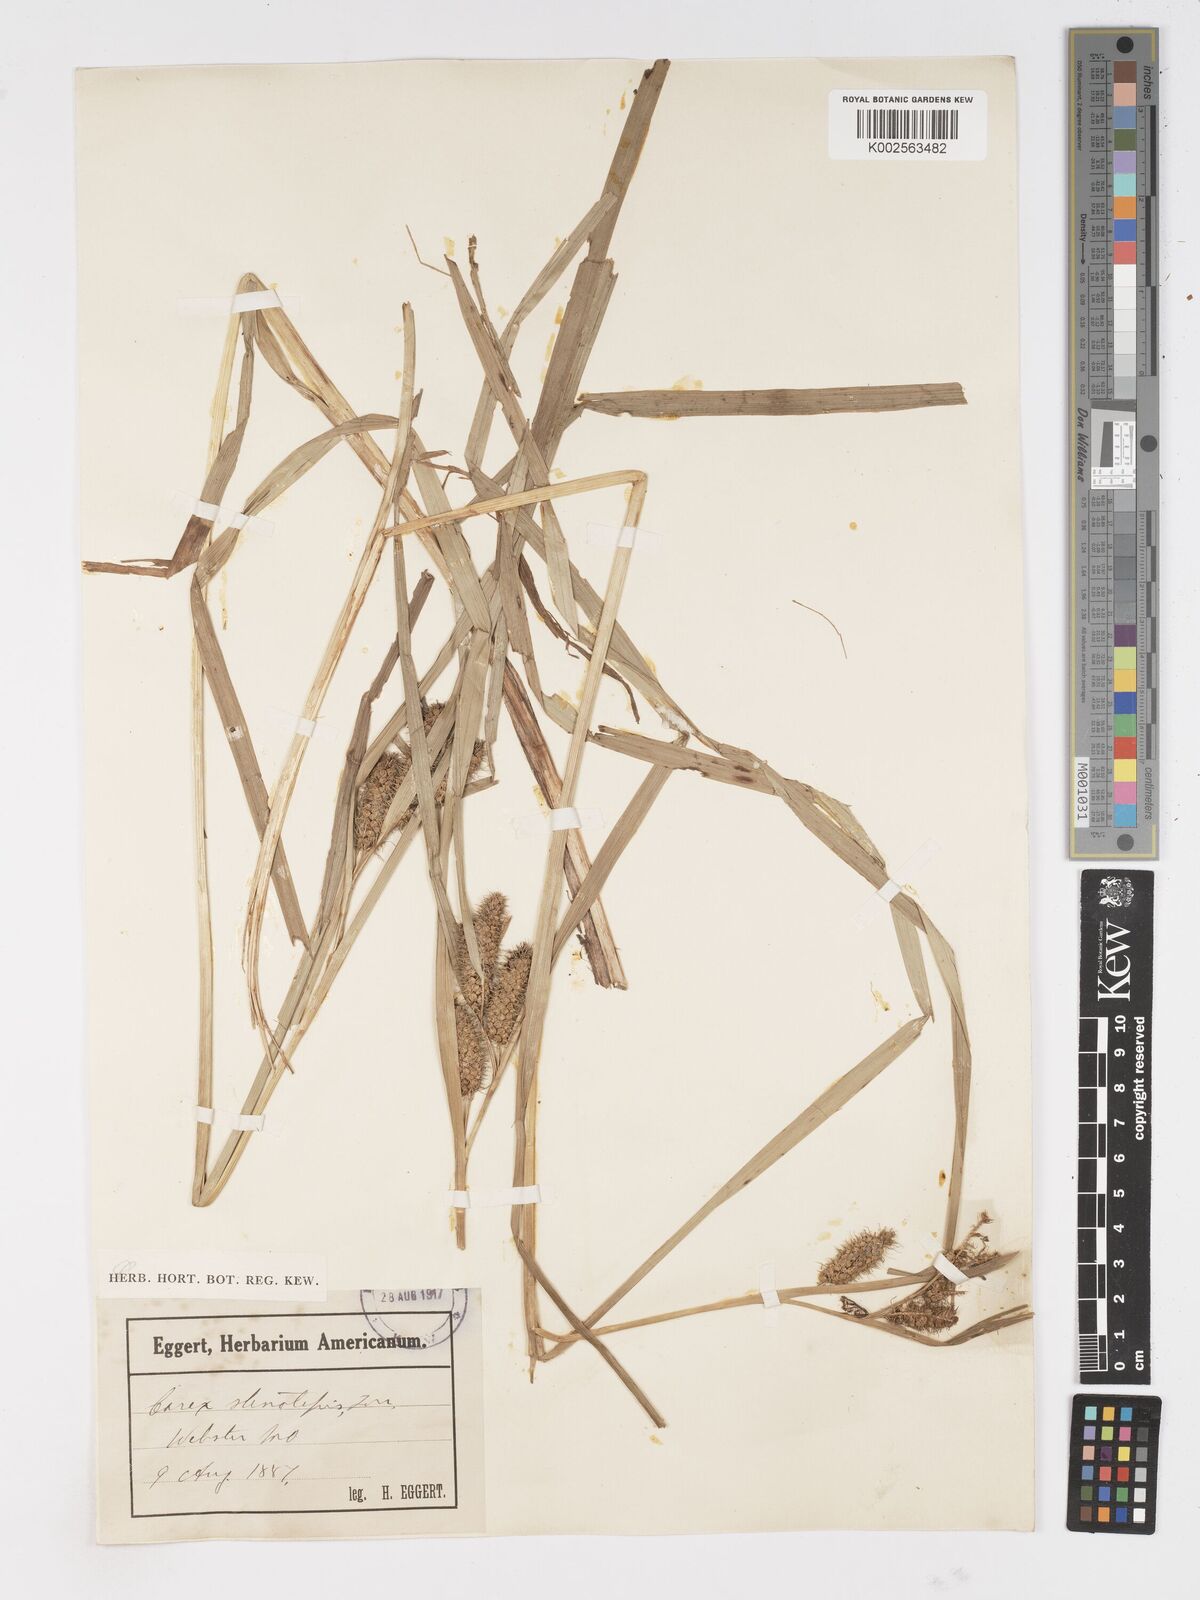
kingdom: Plantae
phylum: Tracheophyta
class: Liliopsida
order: Poales
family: Cyperaceae
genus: Carex
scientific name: Carex frankii
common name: Frank's sedge
